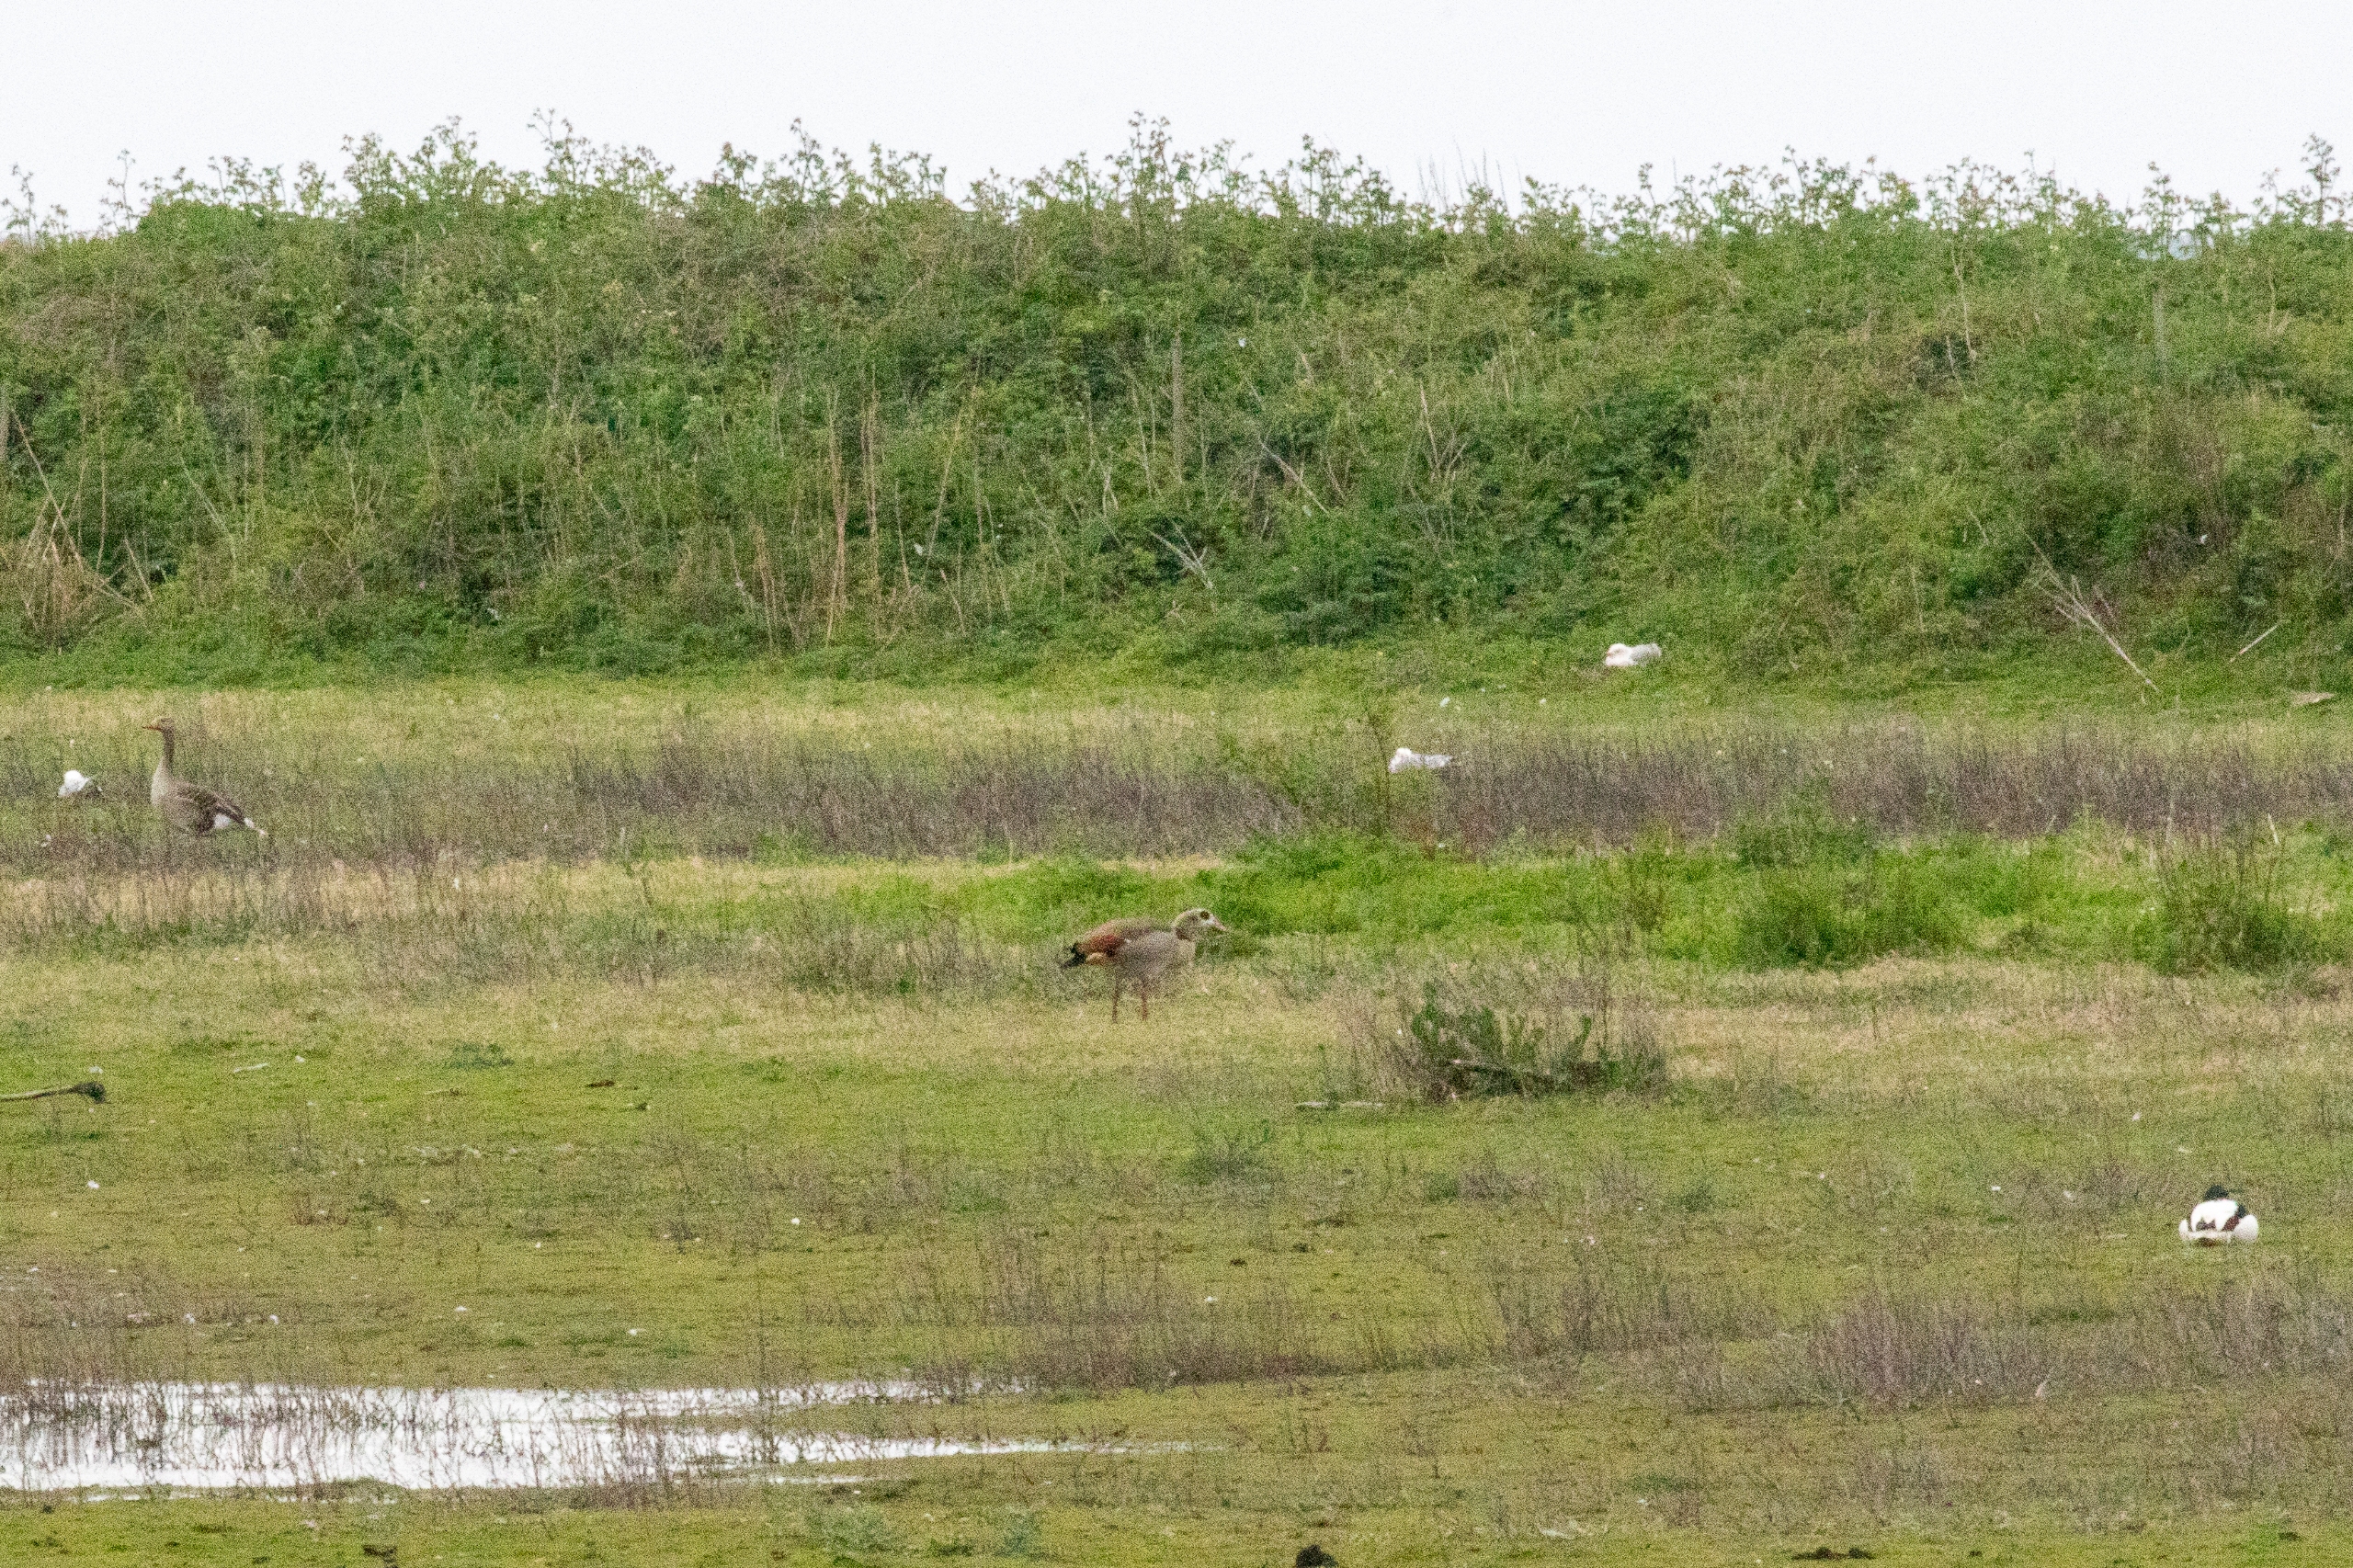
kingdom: Animalia
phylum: Chordata
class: Aves
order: Anseriformes
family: Anatidae
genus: Alopochen
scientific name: Alopochen aegyptiaca
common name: Nilgås
